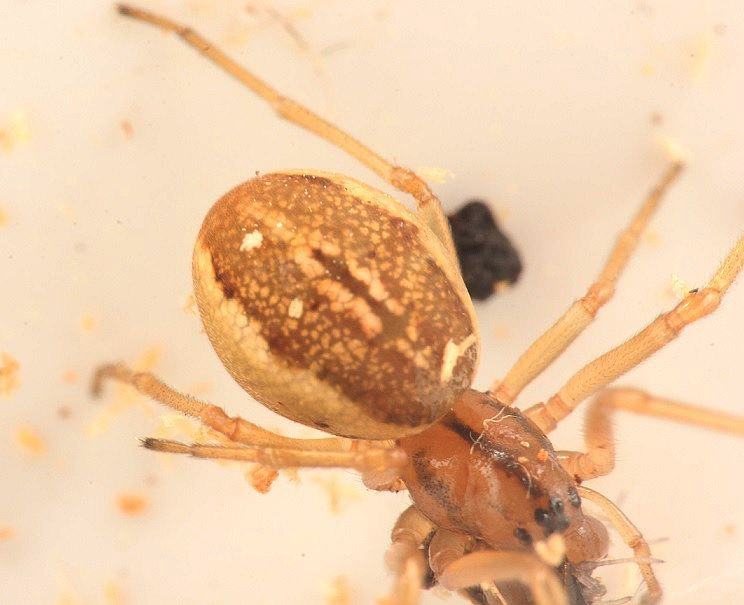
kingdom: Animalia
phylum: Arthropoda
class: Arachnida
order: Araneae
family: Tetragnathidae
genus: Pachygnatha
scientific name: Pachygnatha clercki
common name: Søtykkæbe
